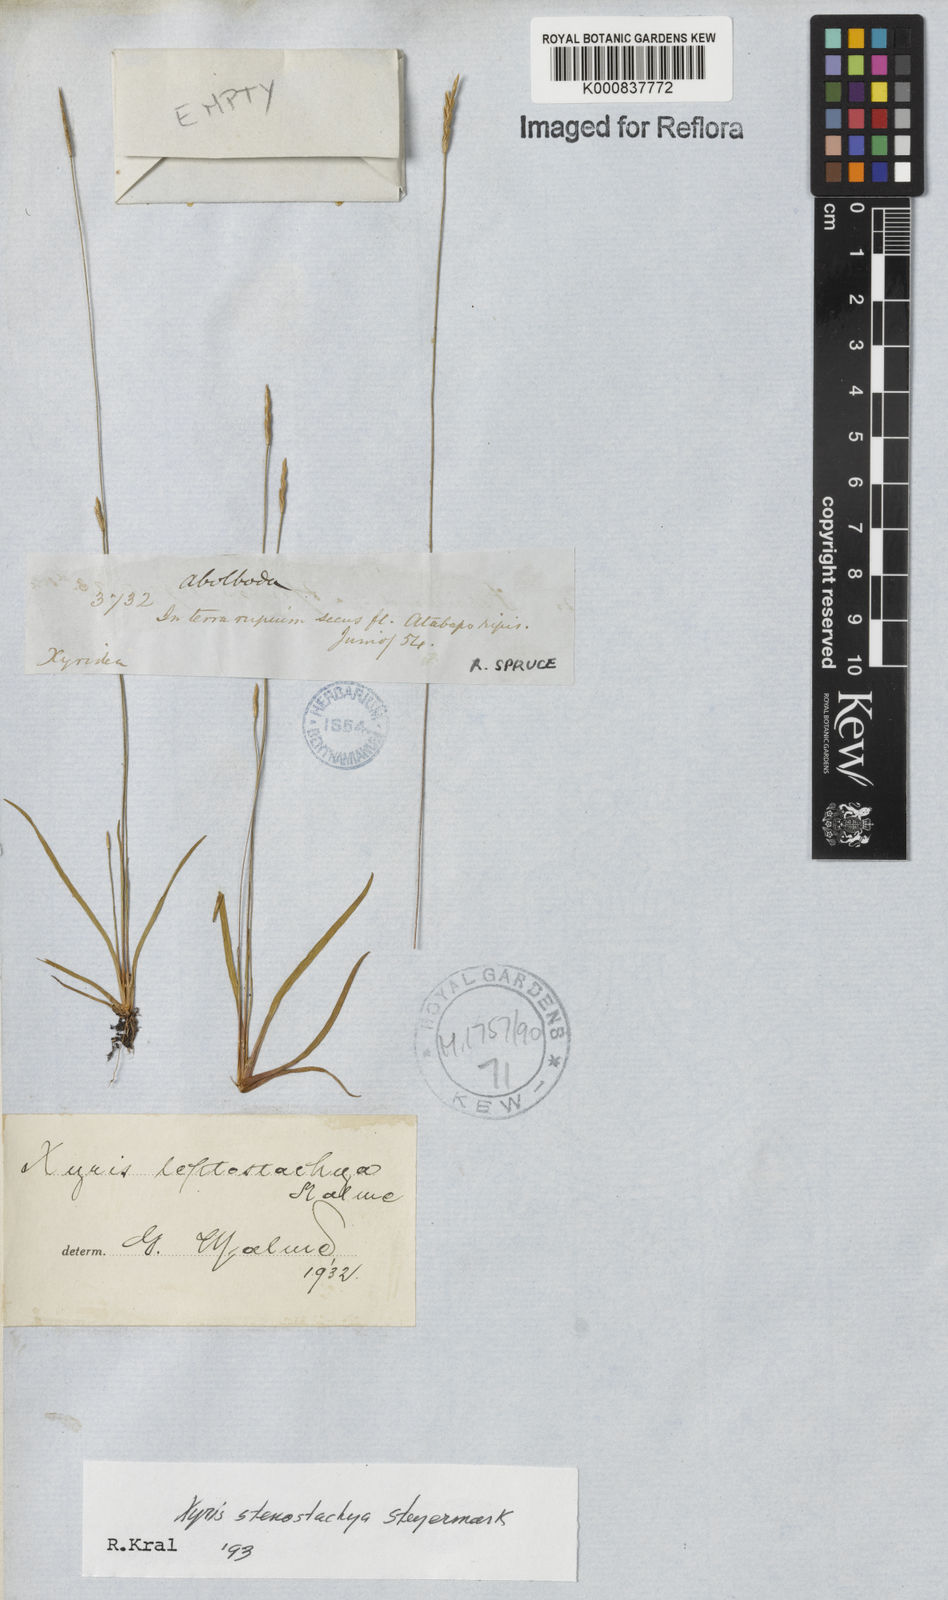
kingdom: Plantae
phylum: Tracheophyta
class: Liliopsida
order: Poales
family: Xyridaceae
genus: Xyris
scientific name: Xyris stenostachya
